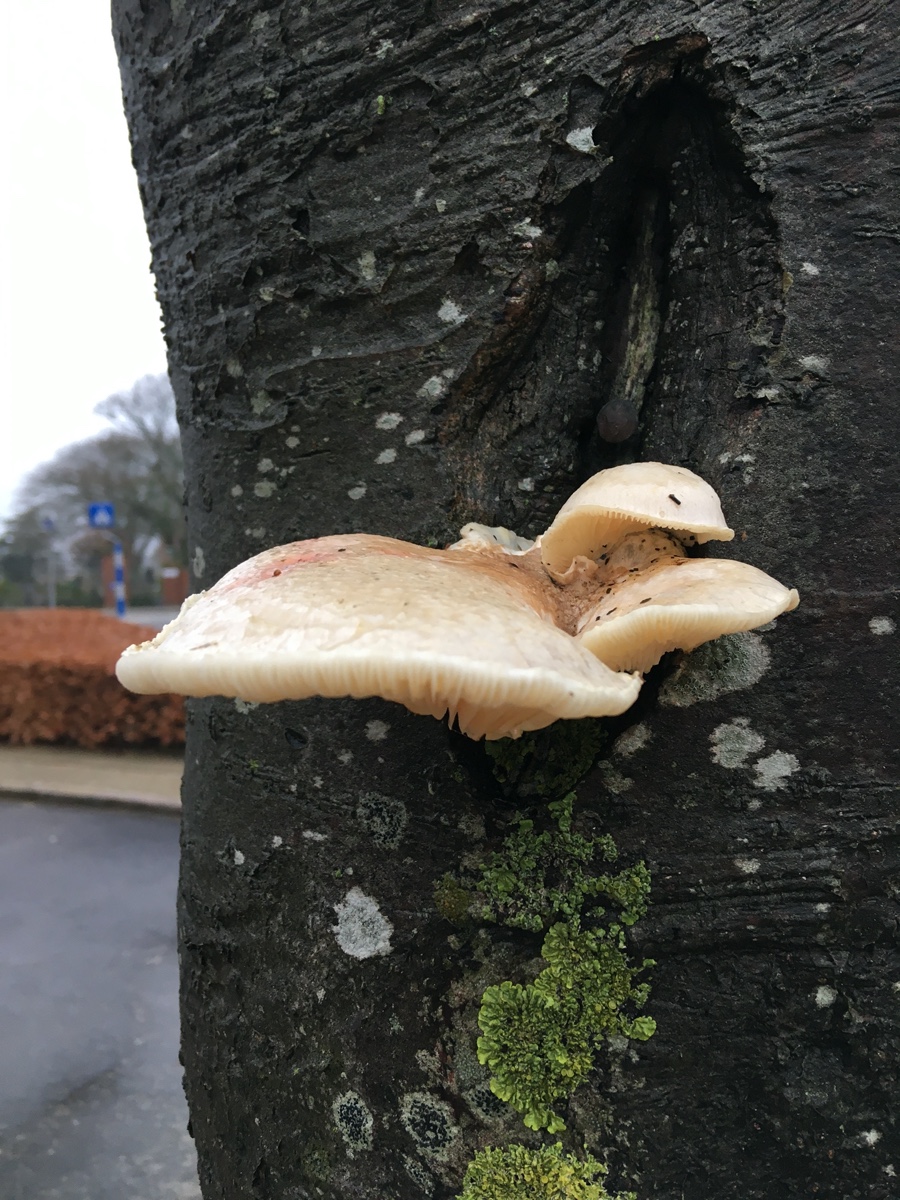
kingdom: Fungi
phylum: Basidiomycota
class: Agaricomycetes
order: Agaricales
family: Pleurotaceae
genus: Pleurotus
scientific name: Pleurotus dryinus
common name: korkagtig østershat
